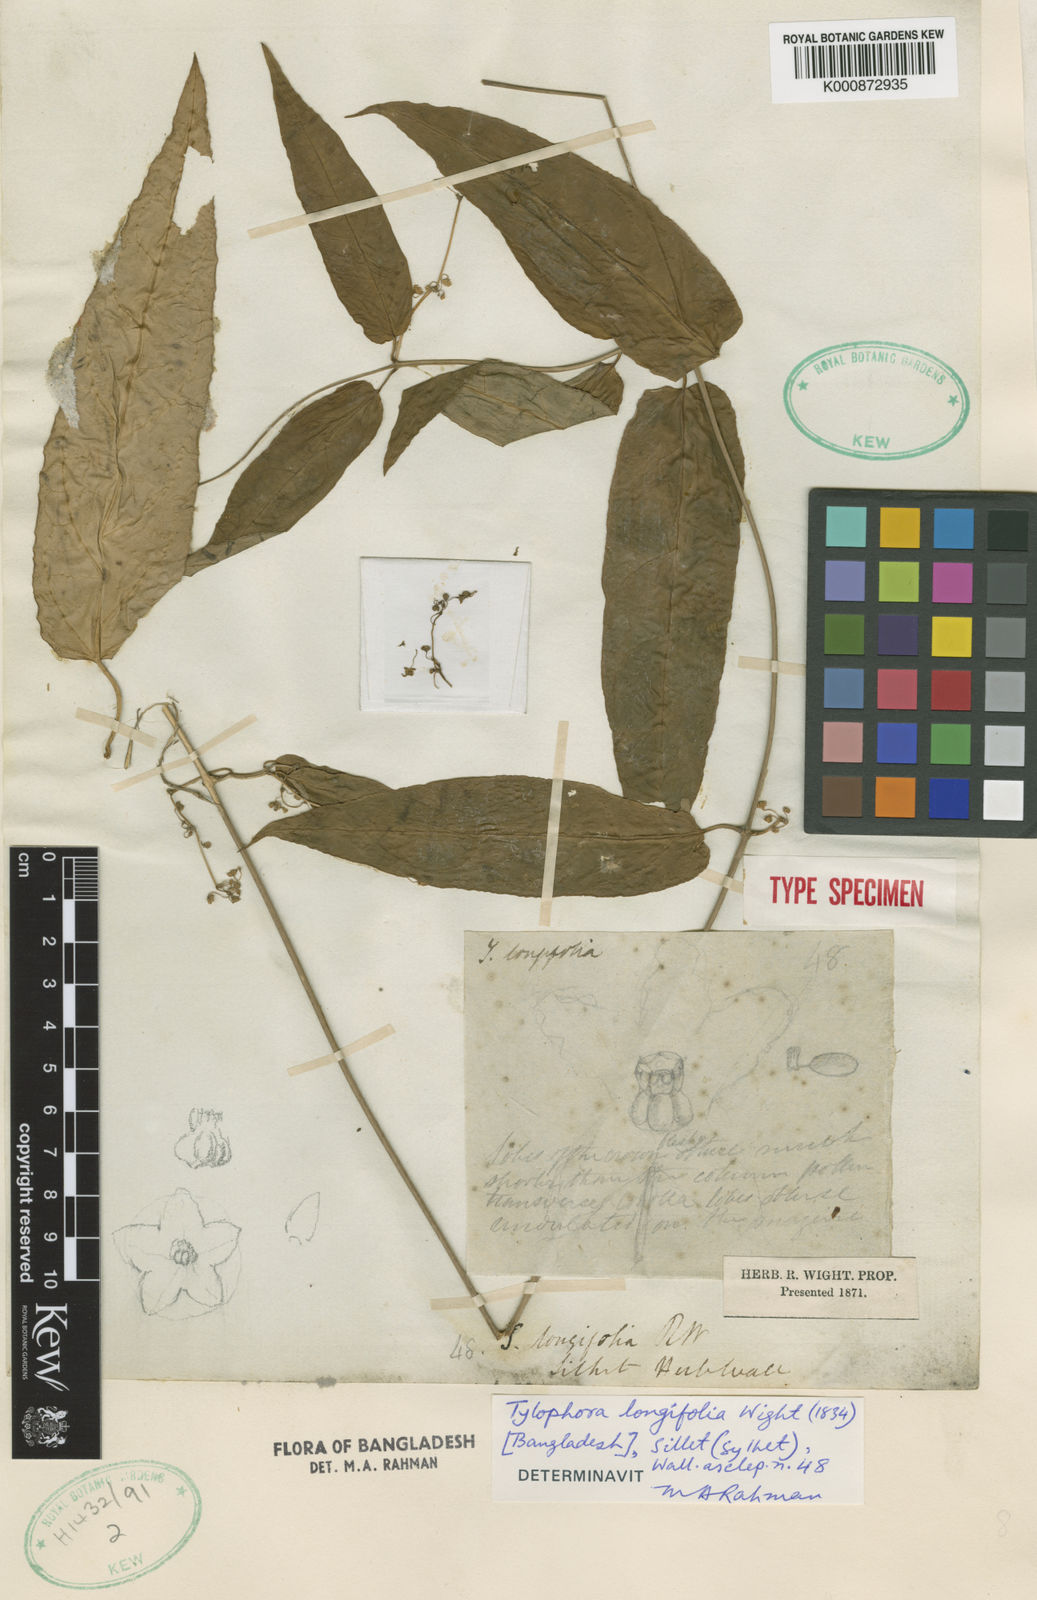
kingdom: Plantae
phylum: Tracheophyta
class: Magnoliopsida
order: Gentianales
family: Apocynaceae
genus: Vincetoxicum
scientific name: Vincetoxicum longifolium
